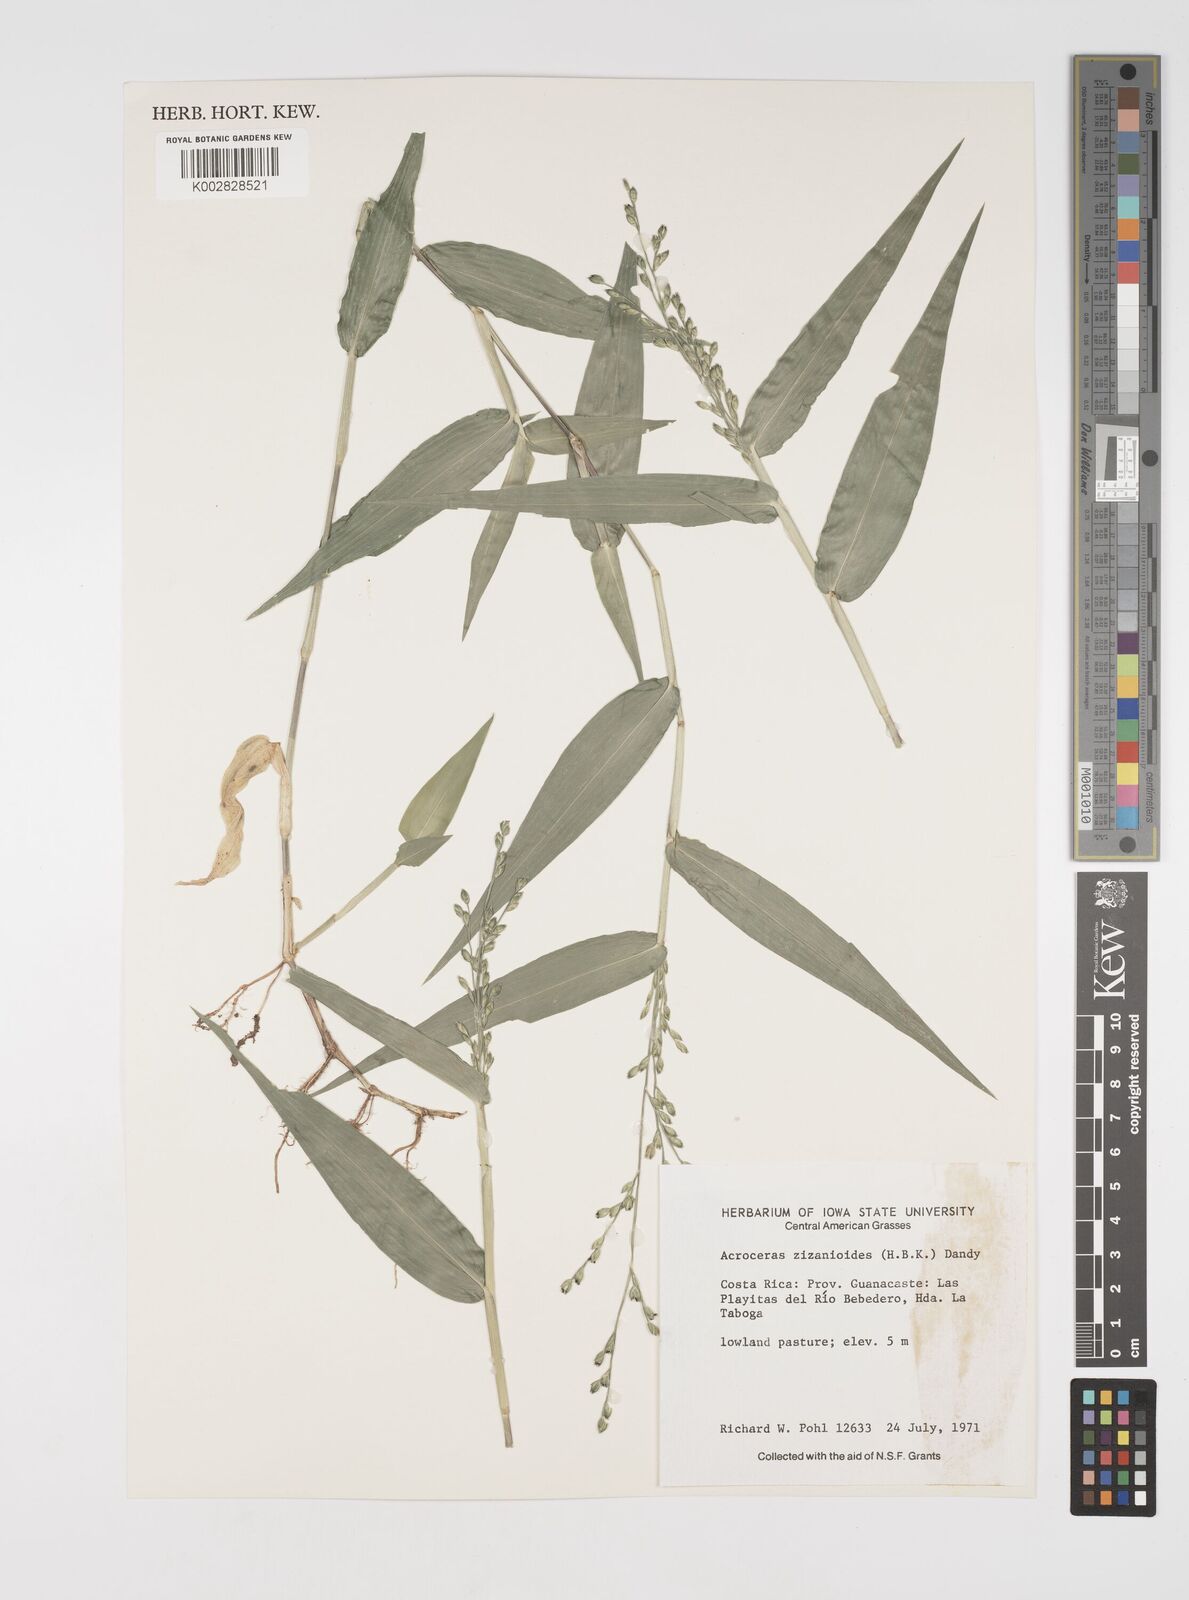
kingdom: Plantae
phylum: Tracheophyta
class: Liliopsida
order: Poales
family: Poaceae
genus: Acroceras
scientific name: Acroceras zizanioides
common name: Oat grass
